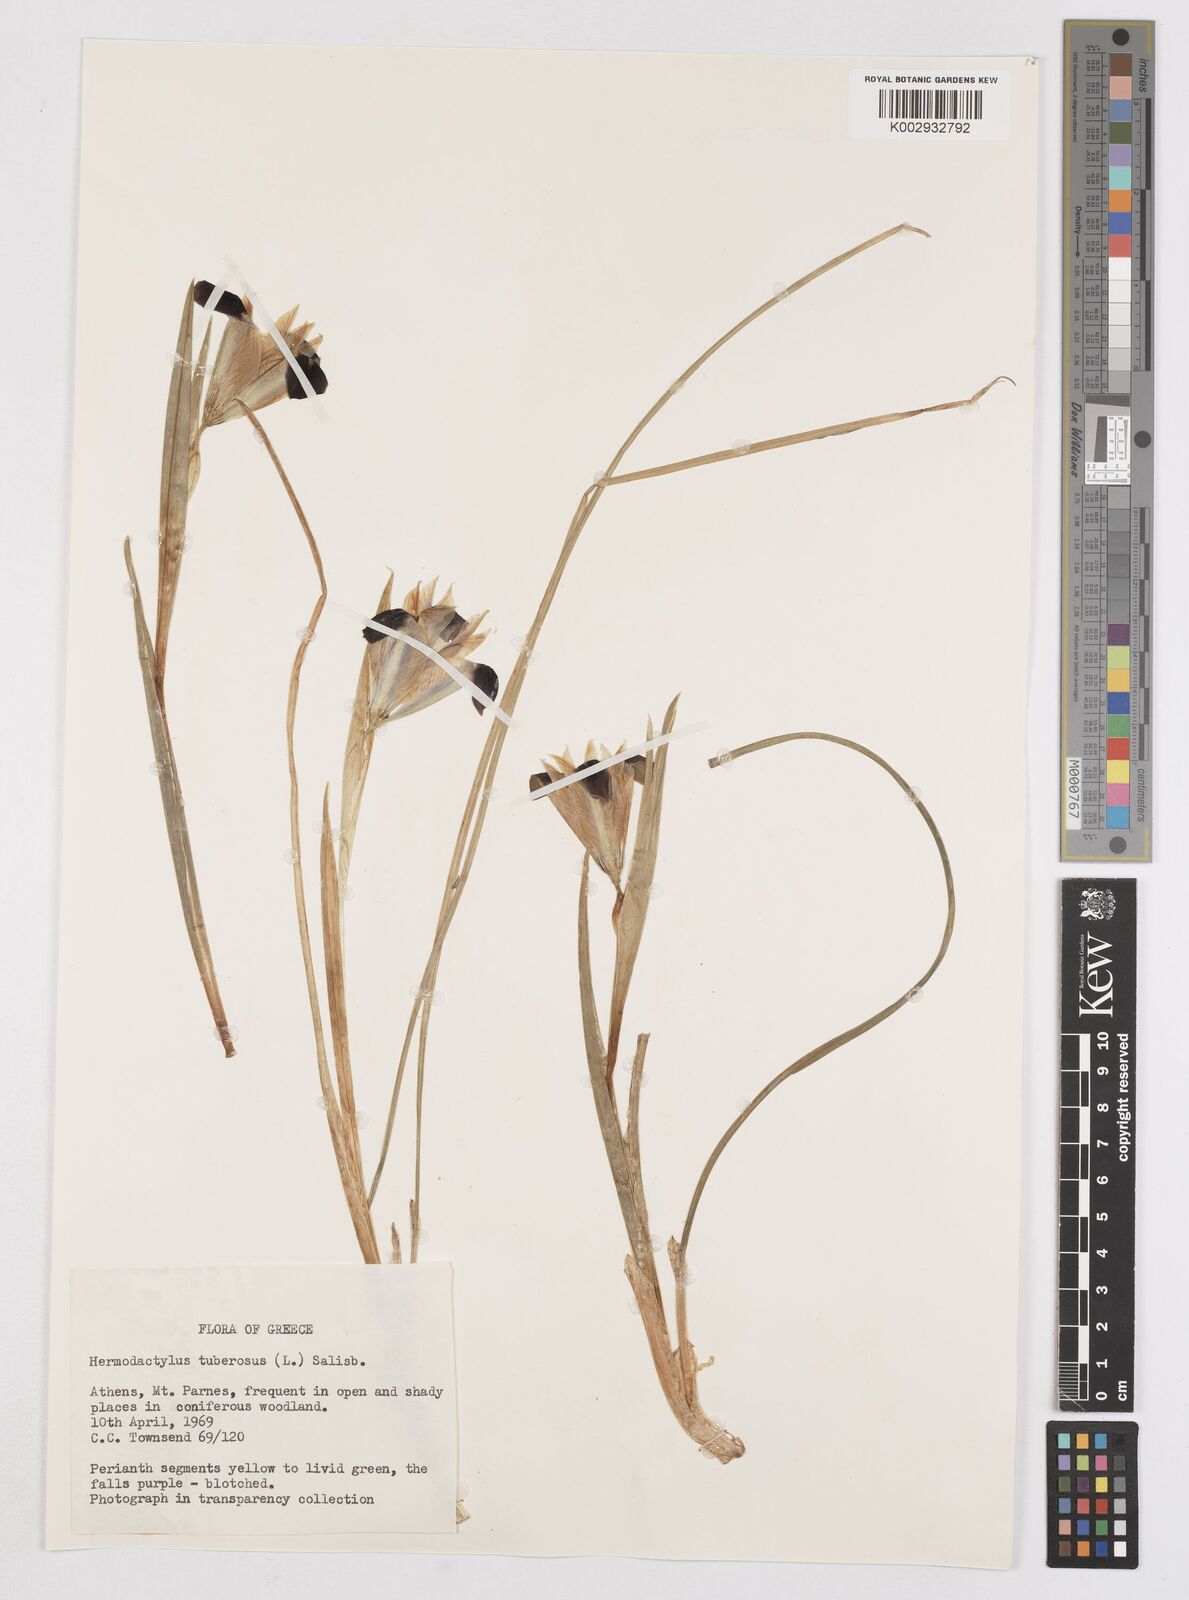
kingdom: Plantae
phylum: Tracheophyta
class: Liliopsida
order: Asparagales
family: Iridaceae
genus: Iris
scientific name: Iris tuberosa
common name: Snake's-head iris
